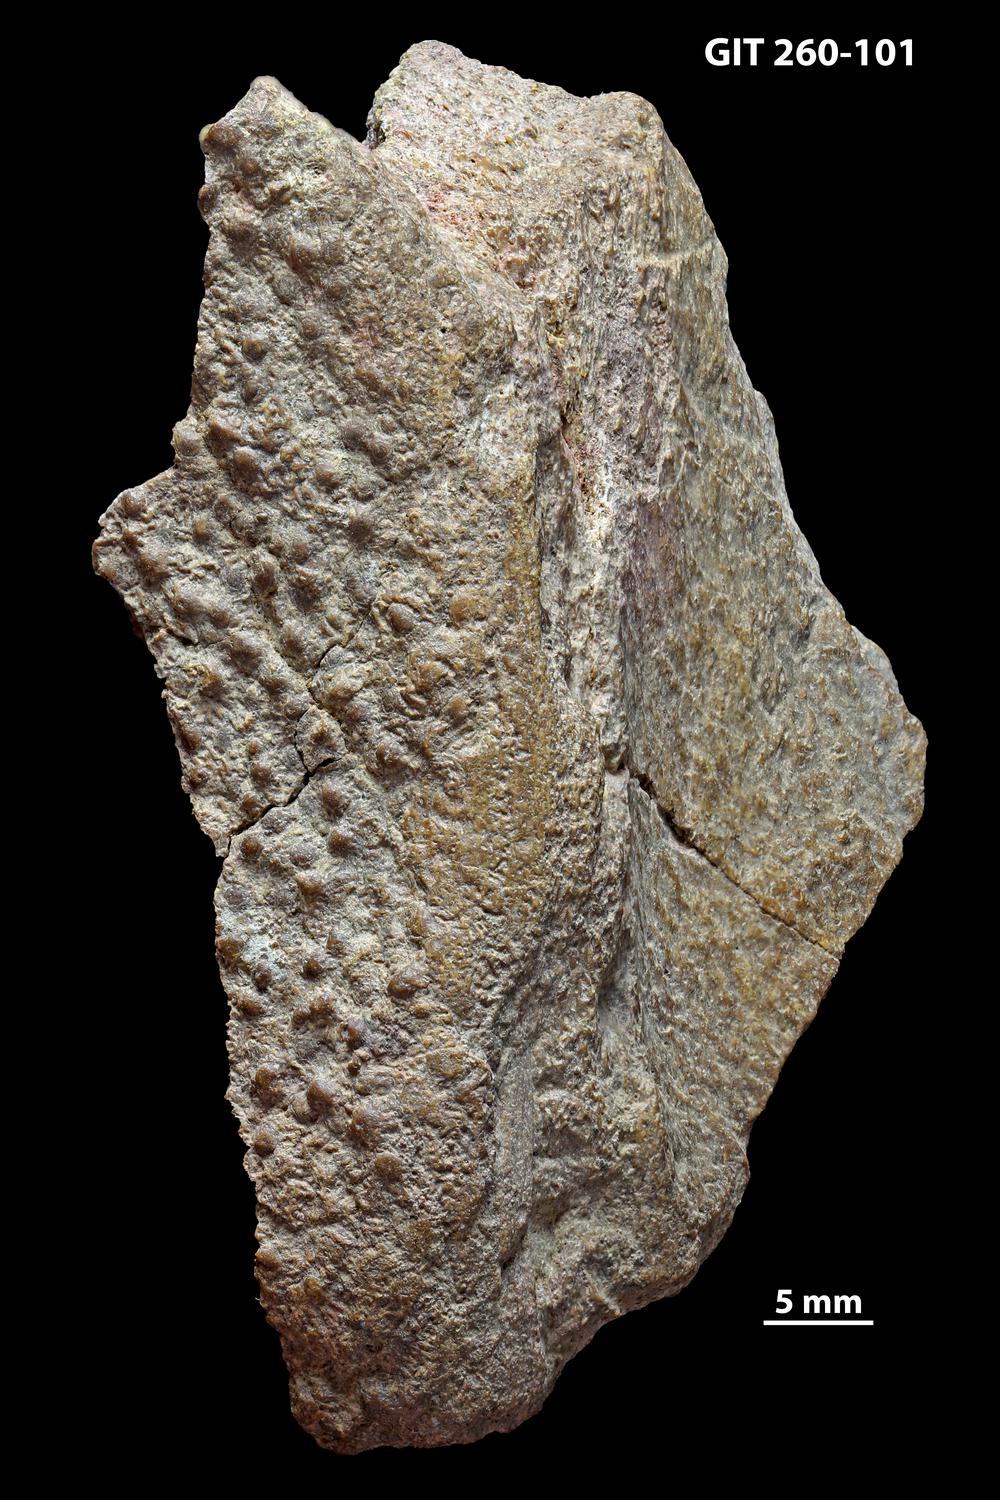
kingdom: Animalia
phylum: Chordata
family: Homostiidae
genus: Homostius
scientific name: Homostius
